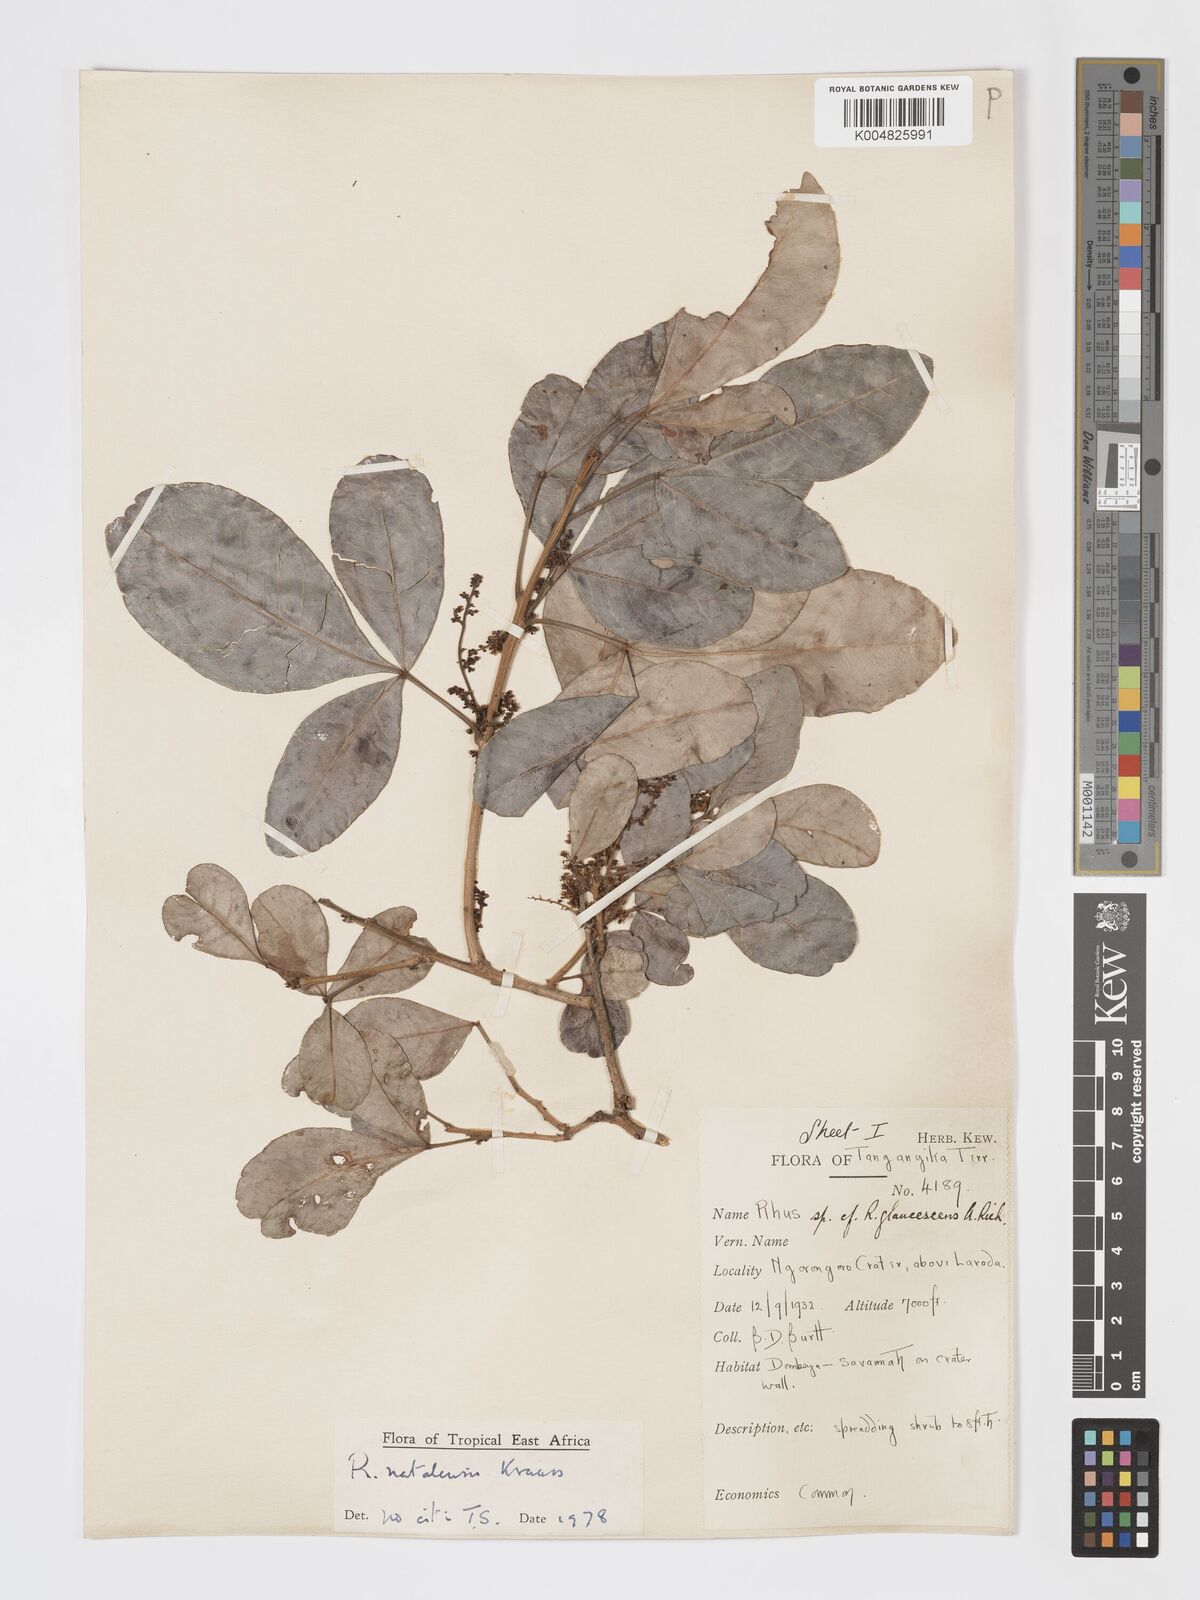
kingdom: Plantae
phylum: Tracheophyta
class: Magnoliopsida
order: Sapindales
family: Anacardiaceae
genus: Searsia
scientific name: Searsia natalensis
